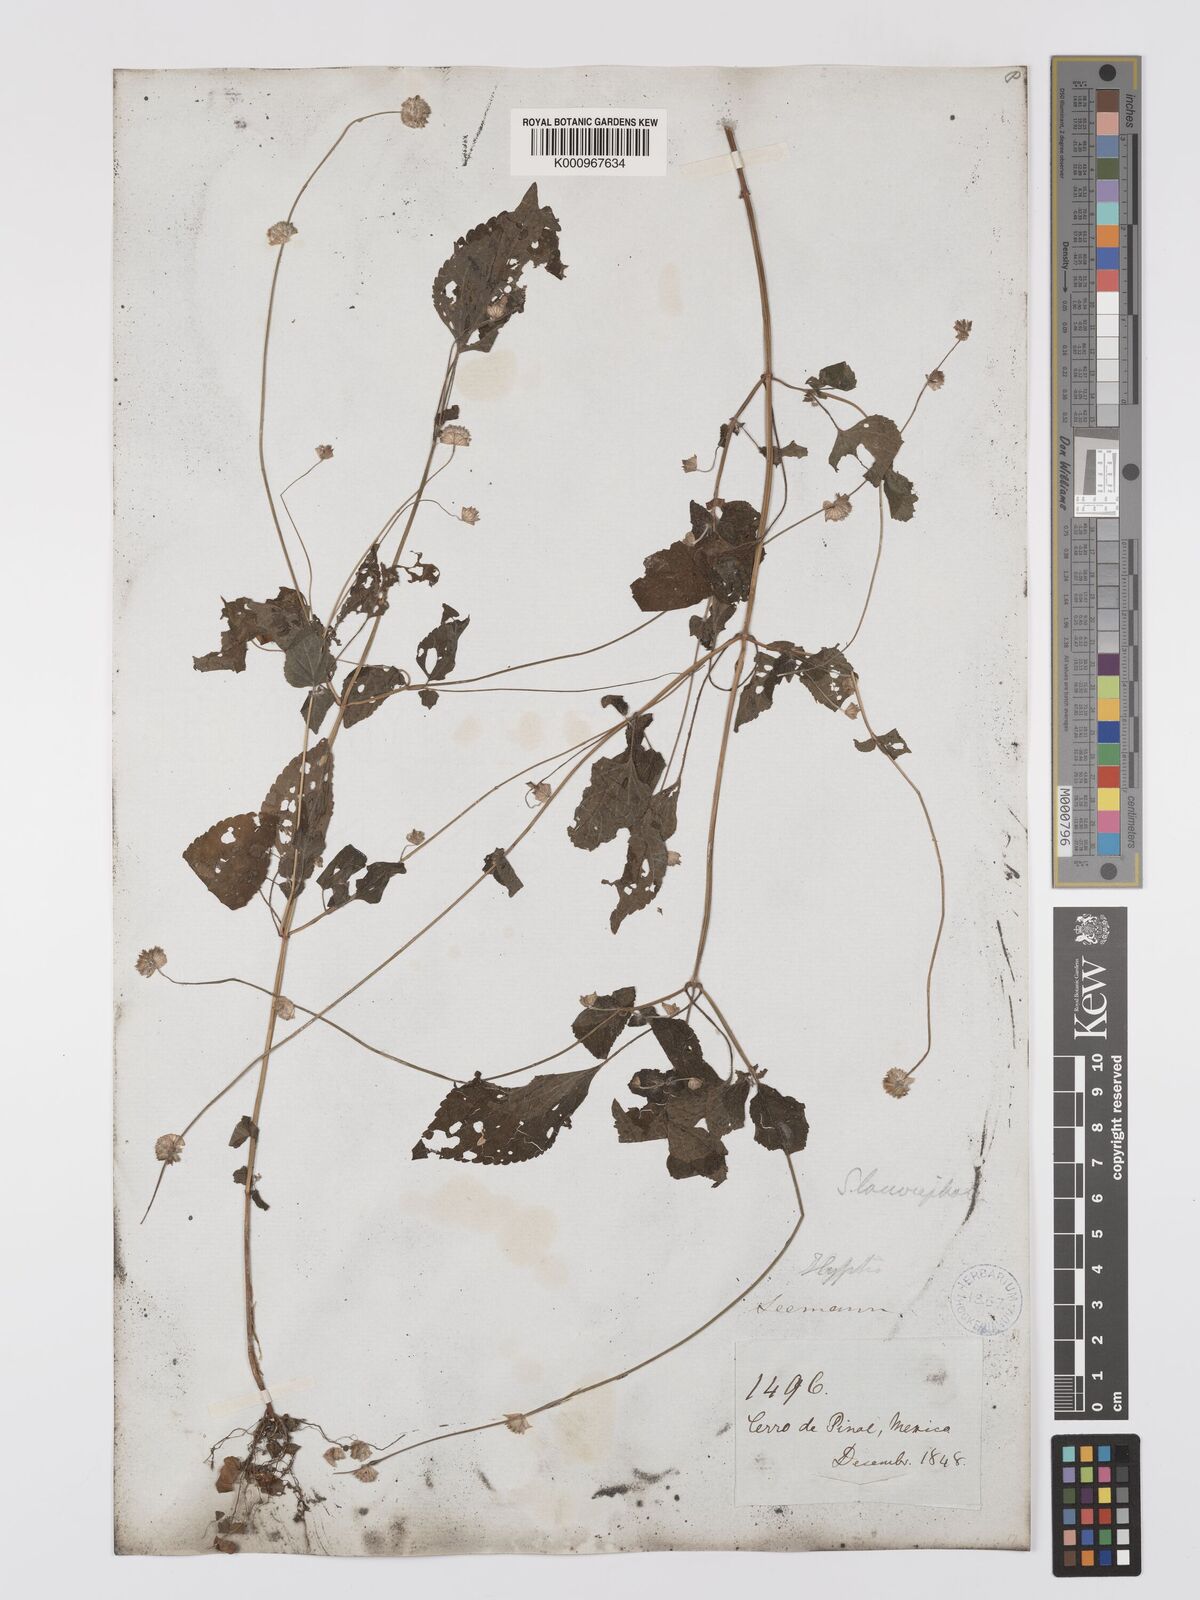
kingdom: Plantae
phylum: Tracheophyta
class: Magnoliopsida
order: Lamiales
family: Lamiaceae
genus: Salvia
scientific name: Salvia lasiocephala
